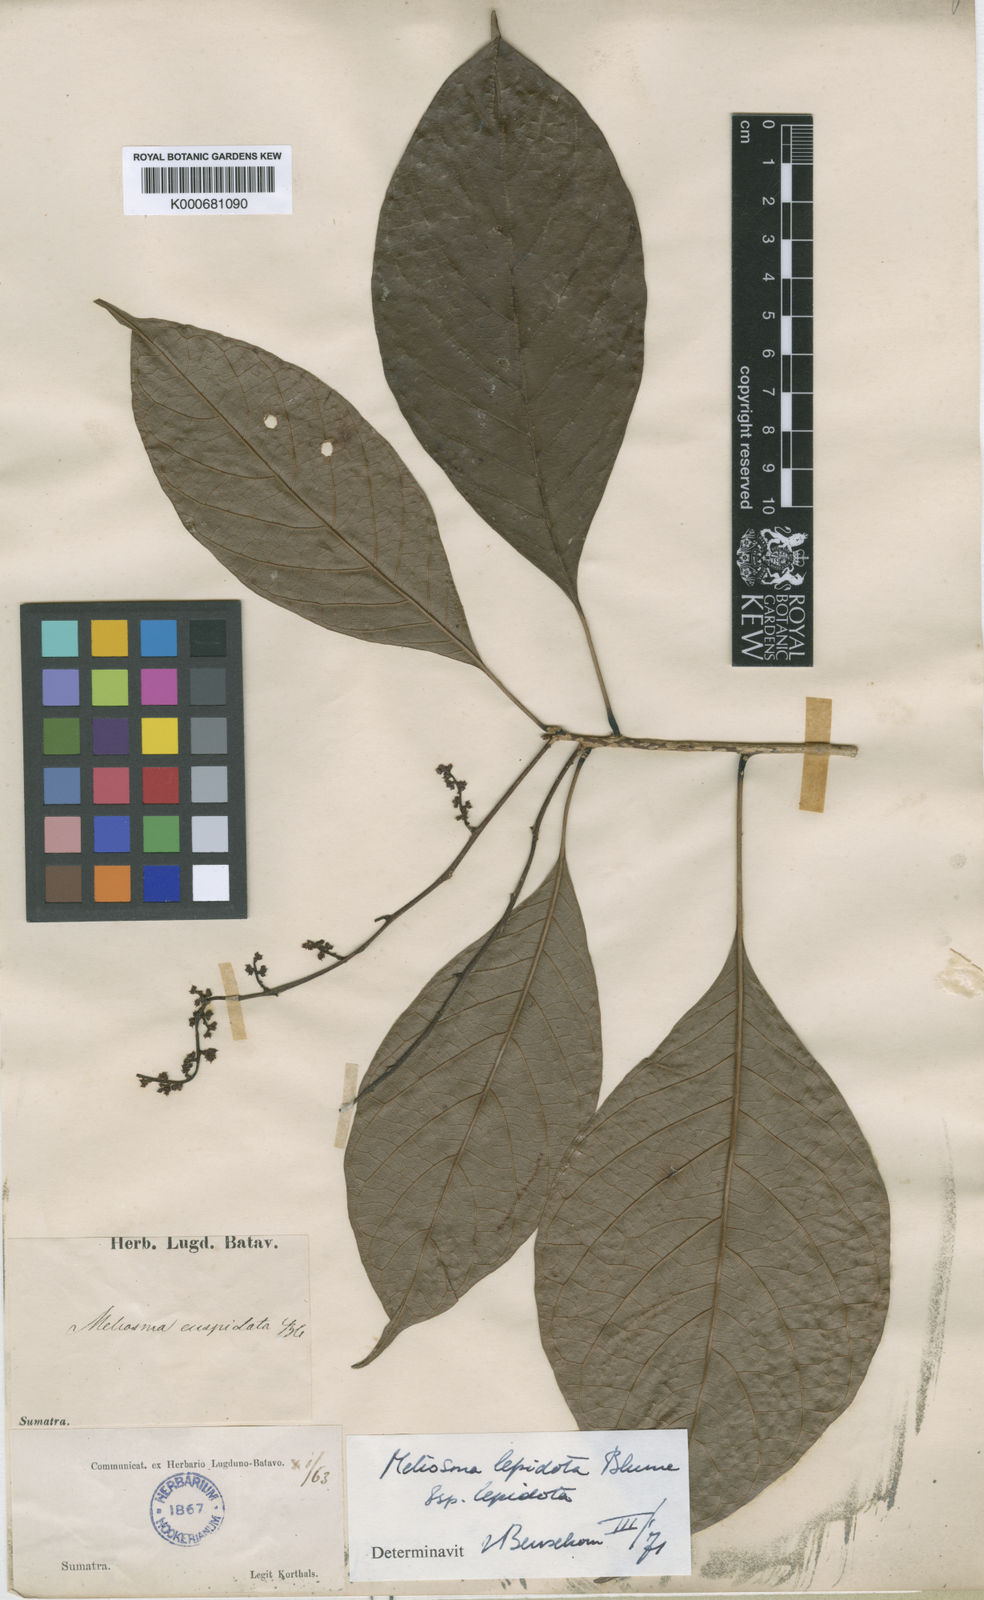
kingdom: Plantae
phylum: Tracheophyta
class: Magnoliopsida
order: Proteales
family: Sabiaceae
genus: Meliosma
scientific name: Meliosma lepidota
